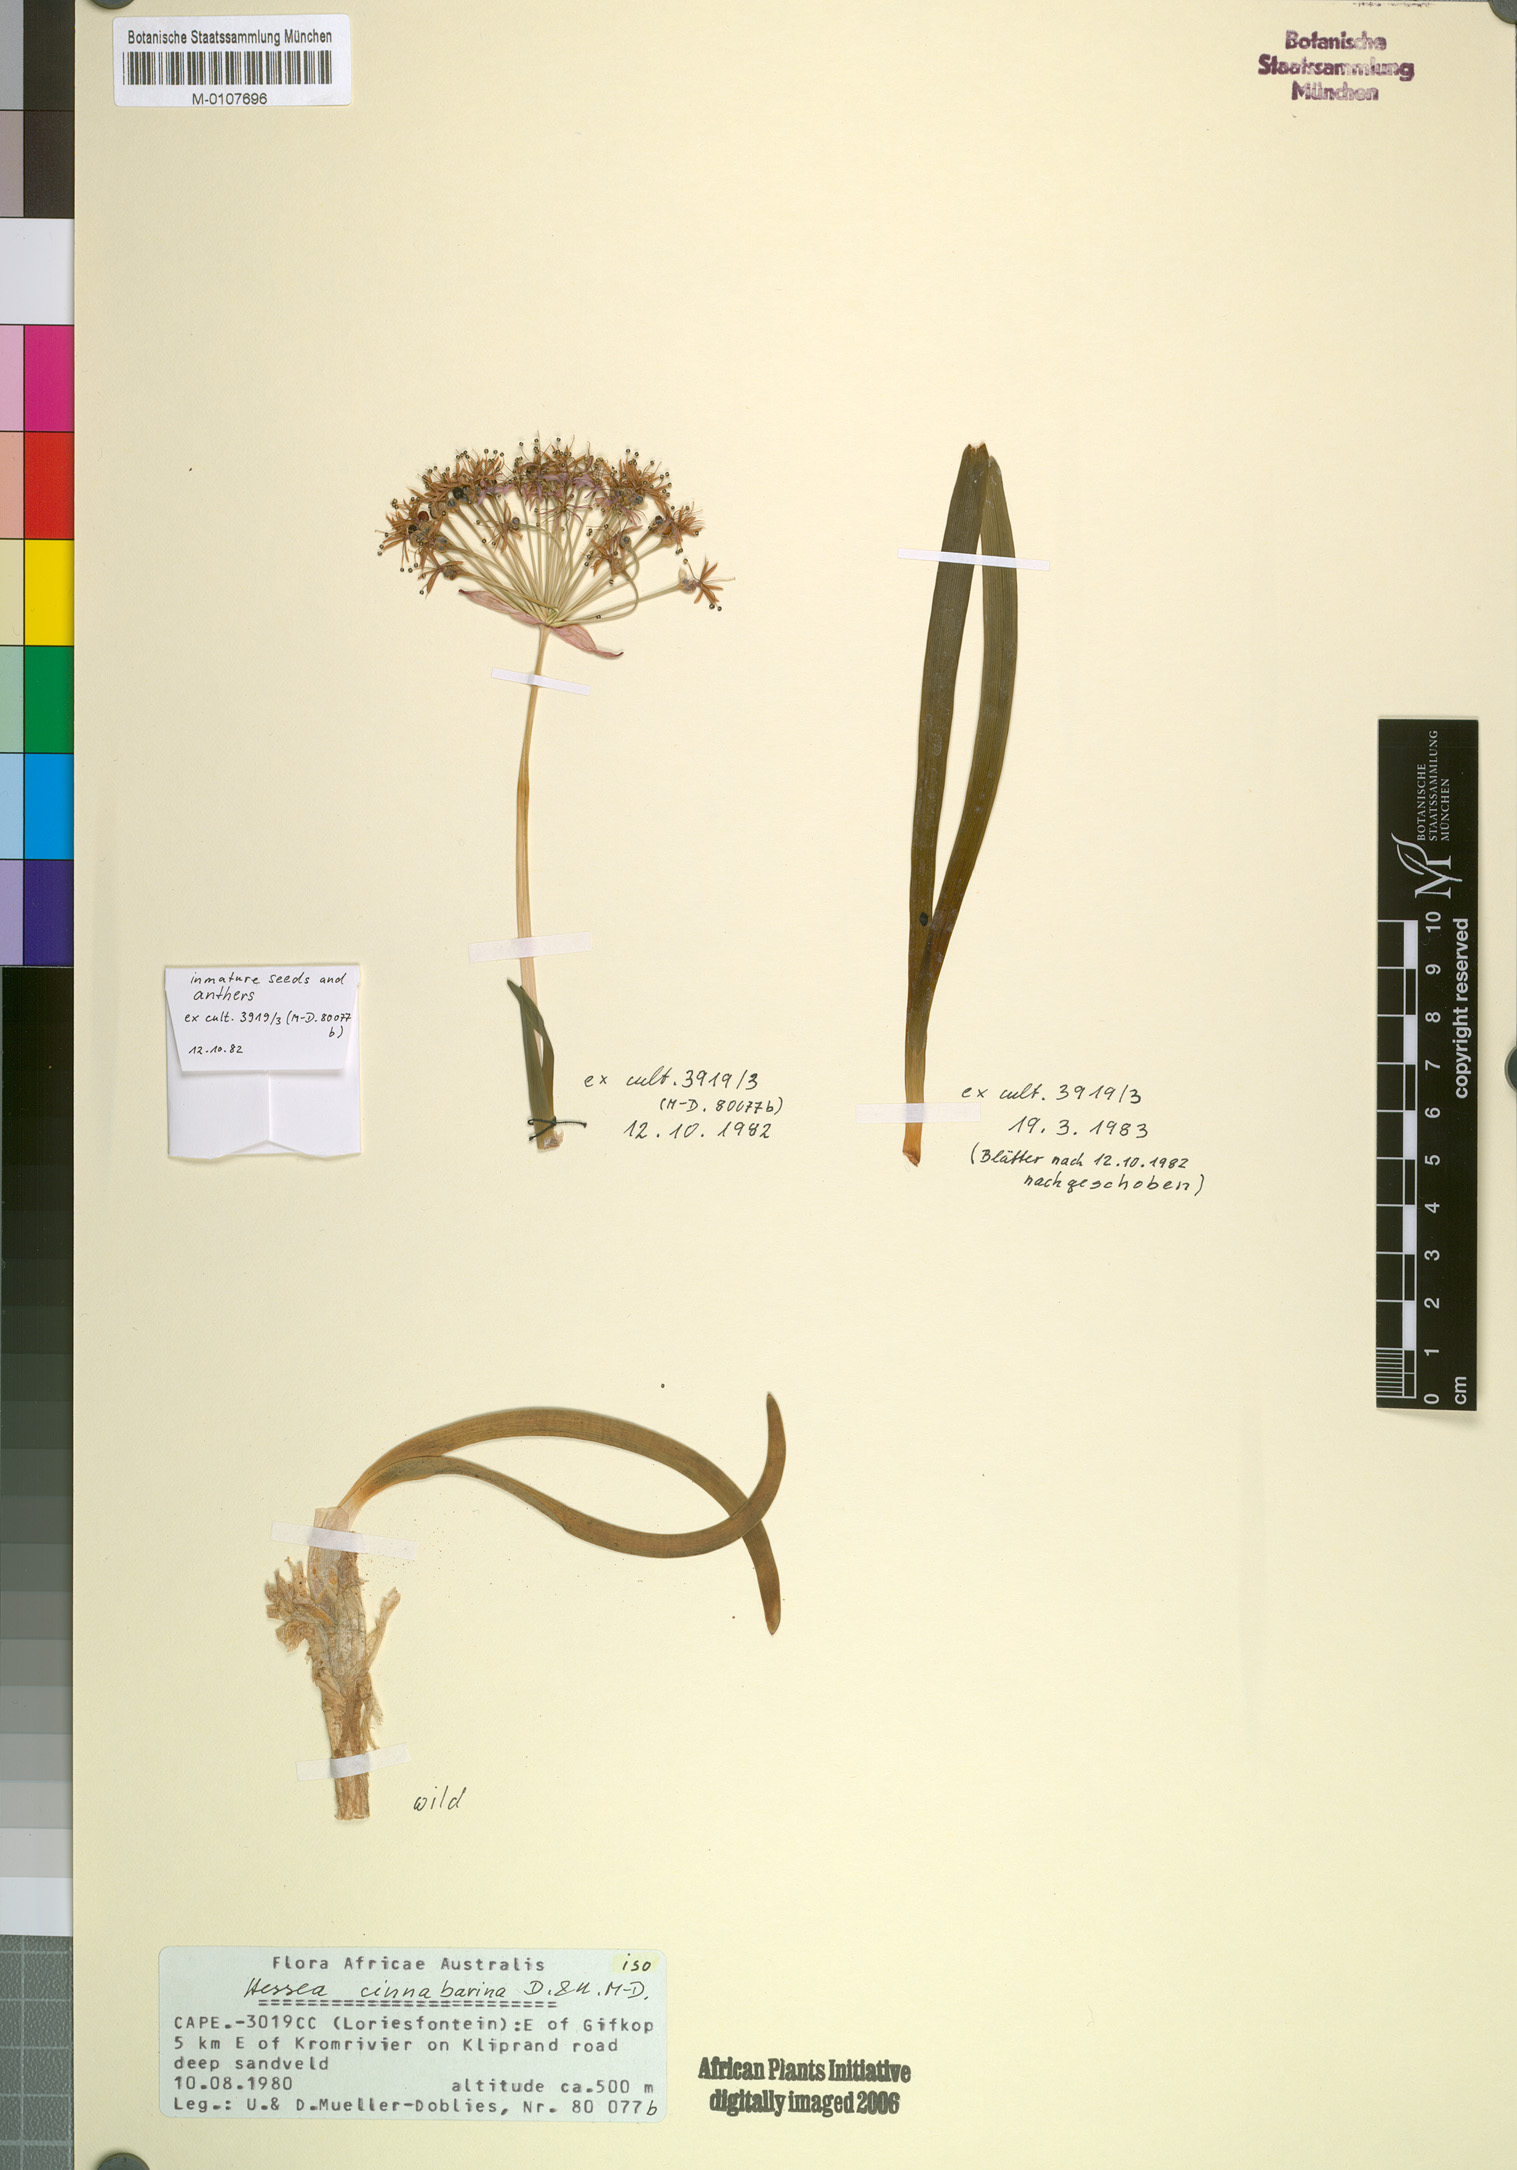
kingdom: Plantae
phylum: Tracheophyta
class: Liliopsida
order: Asparagales
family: Amaryllidaceae
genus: Hessea
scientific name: Hessea stellaris
